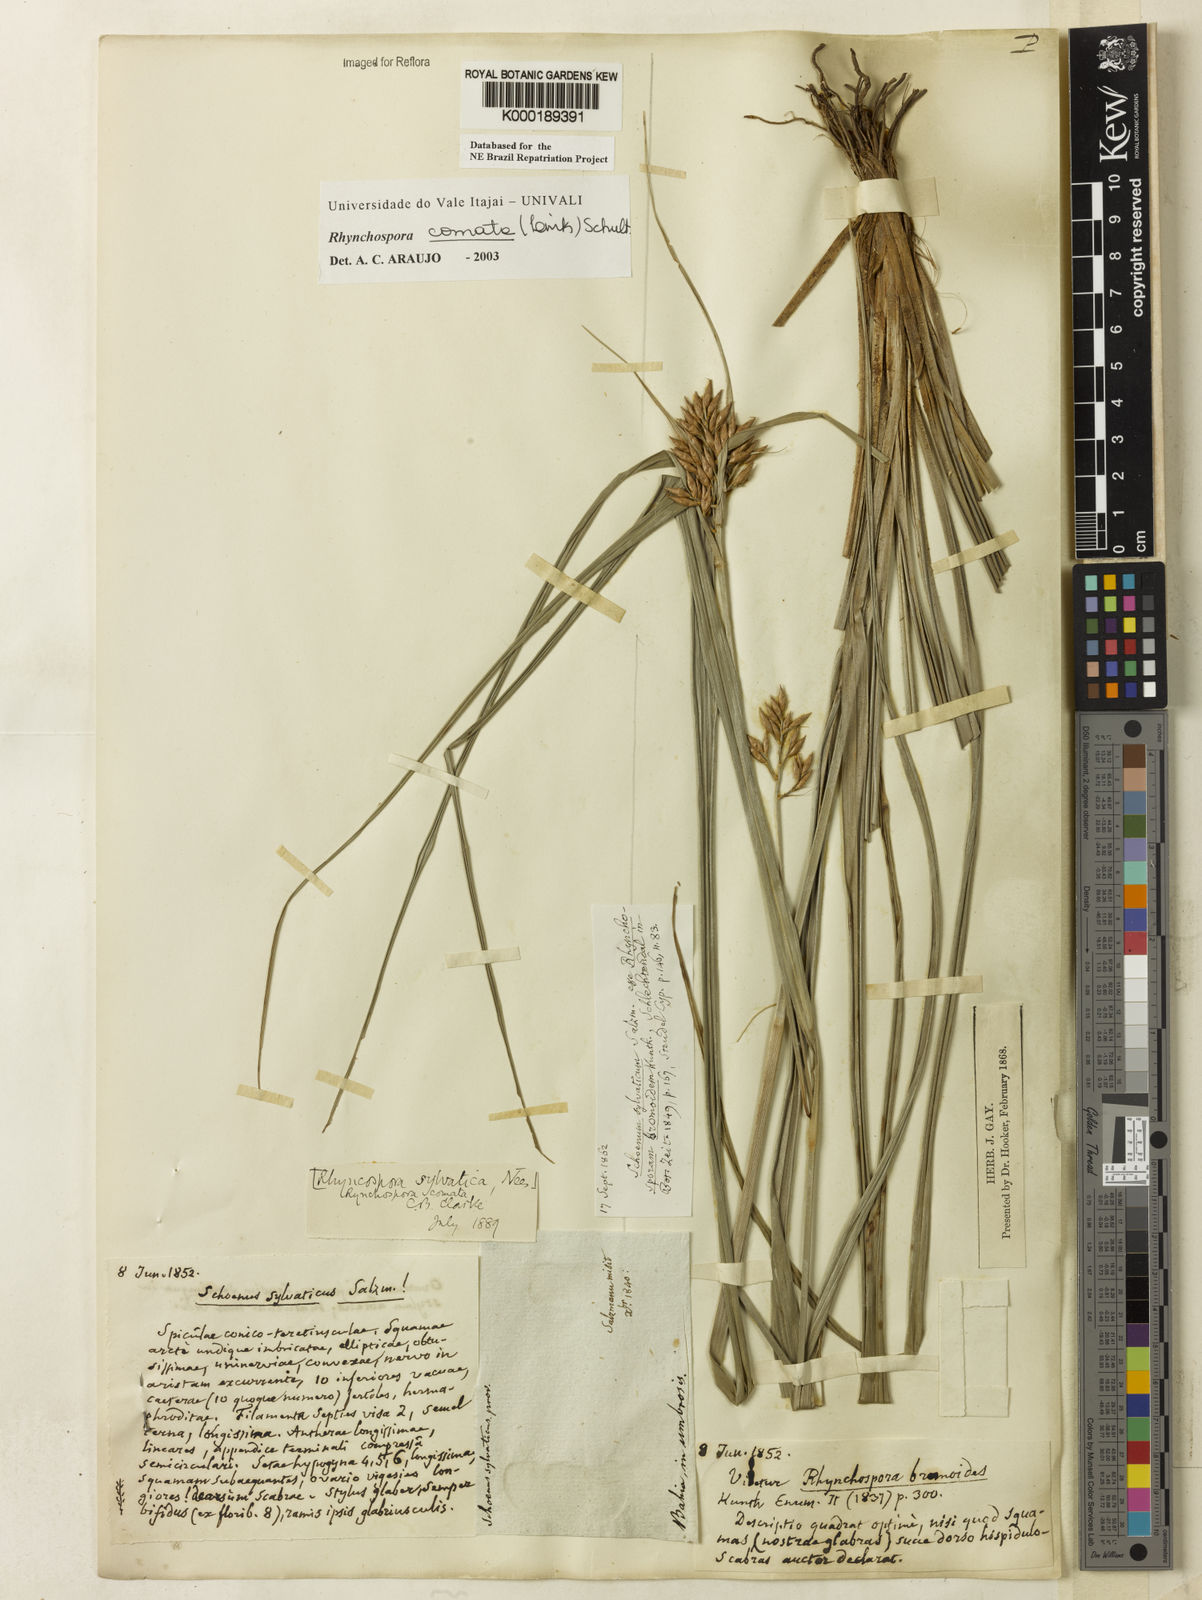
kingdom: Plantae
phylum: Tracheophyta
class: Liliopsida
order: Poales
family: Cyperaceae
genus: Rhynchospora
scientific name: Rhynchospora comata
